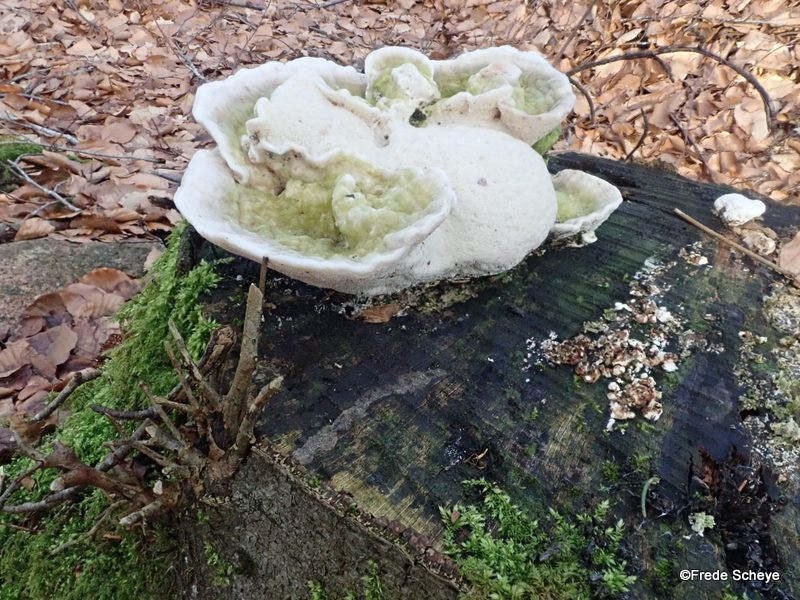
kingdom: Fungi
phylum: Basidiomycota
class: Agaricomycetes
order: Polyporales
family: Polyporaceae
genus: Trametes
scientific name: Trametes gibbosa
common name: puklet læderporesvamp
